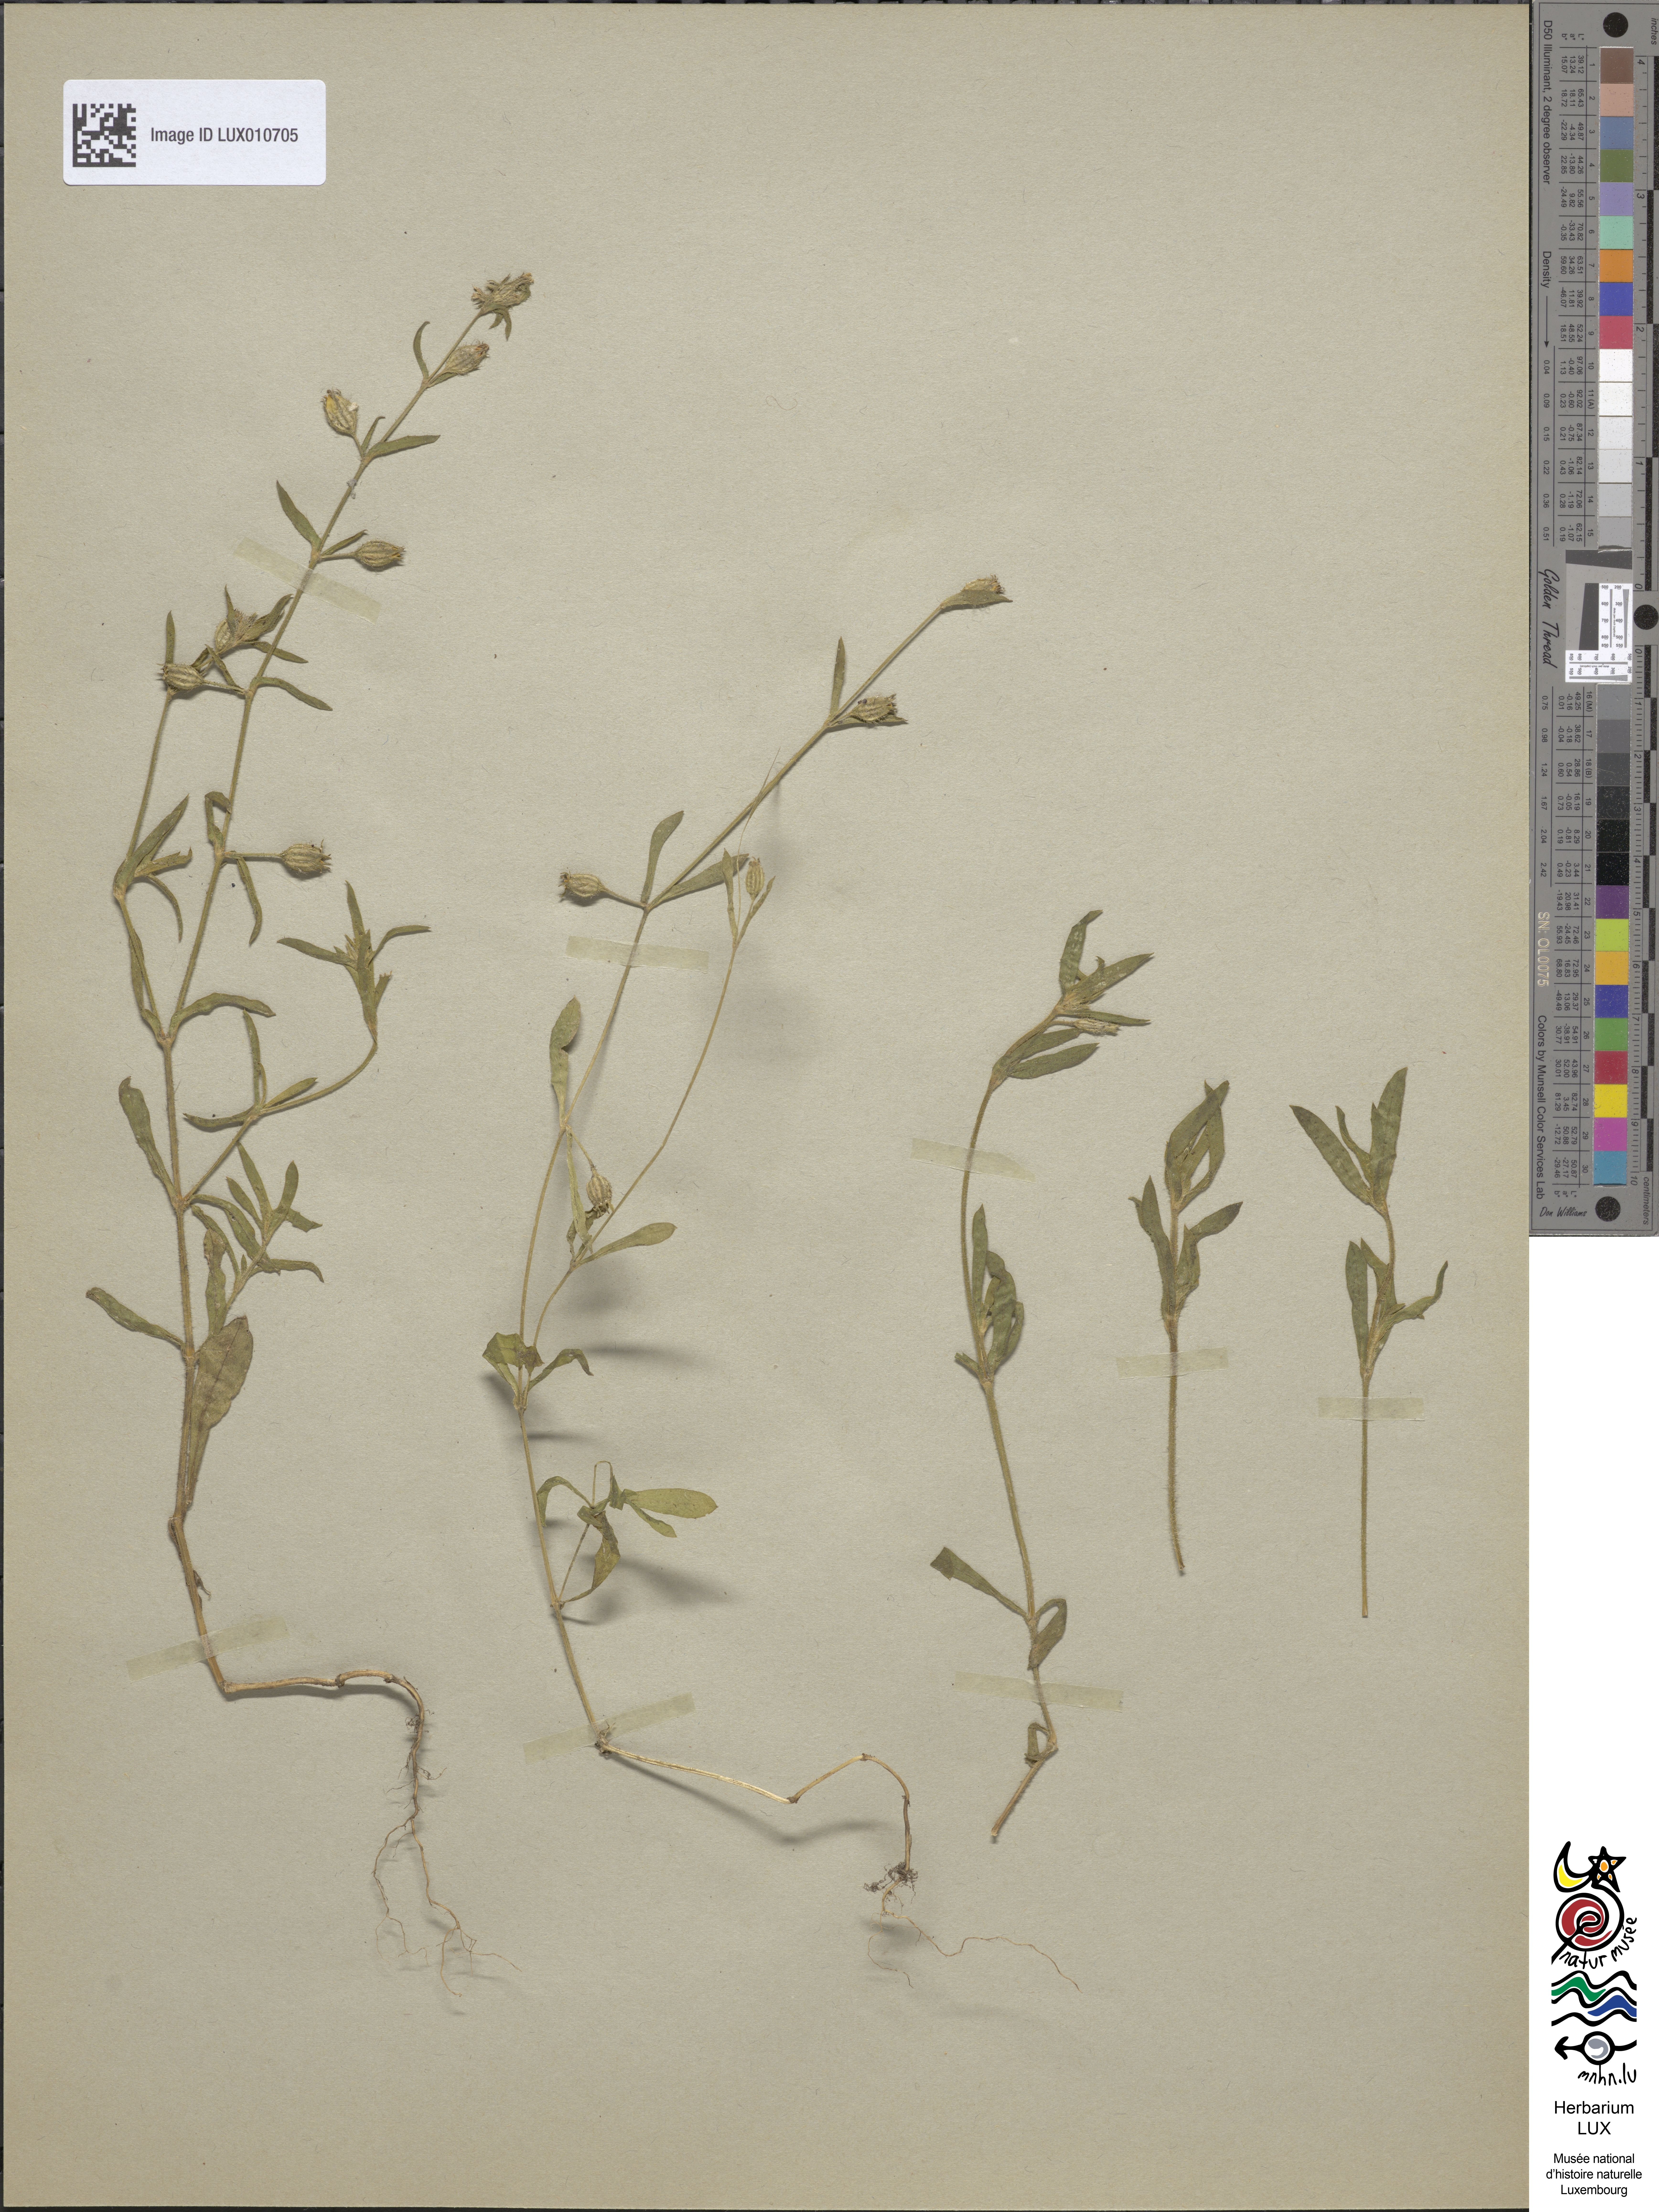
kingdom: Plantae
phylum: Tracheophyta
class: Magnoliopsida
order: Caryophyllales
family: Caryophyllaceae
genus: Silene
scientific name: Silene gallica
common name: Small-flowered catchfly
